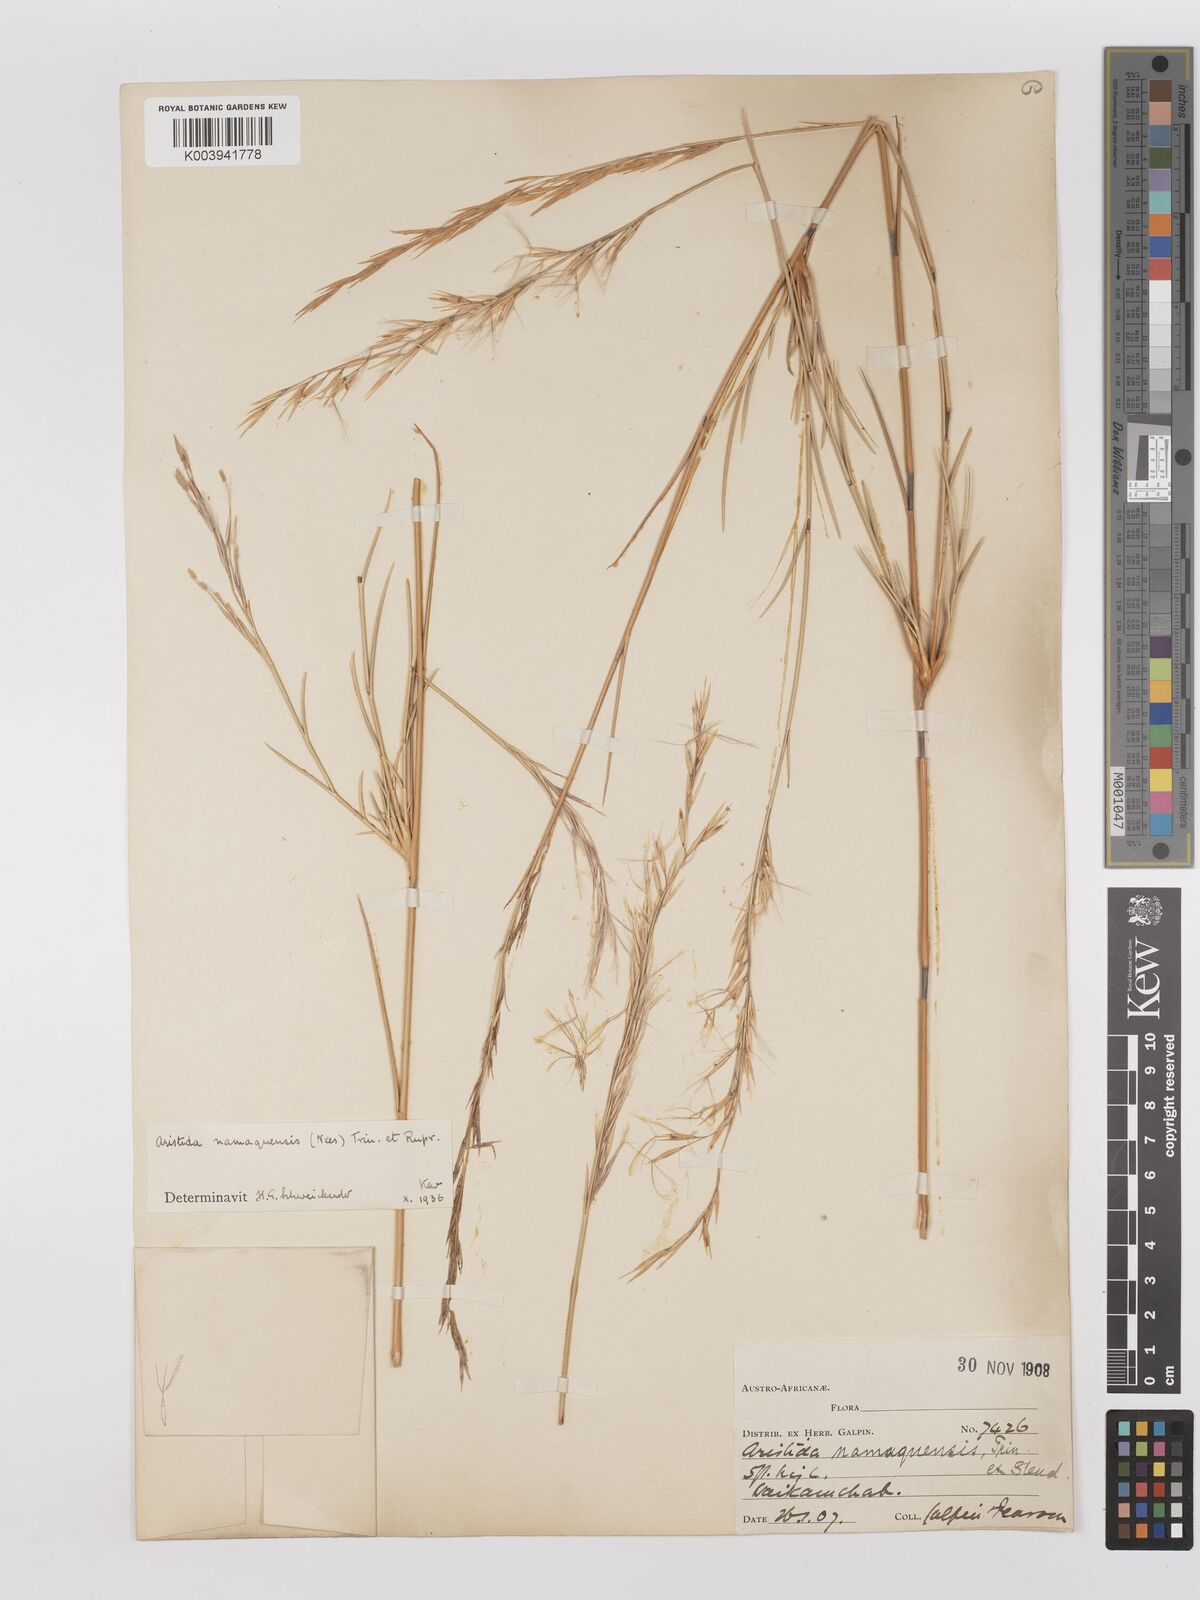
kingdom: Plantae
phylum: Tracheophyta
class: Liliopsida
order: Poales
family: Poaceae
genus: Stipagrostis
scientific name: Stipagrostis namaquensis
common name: River bushman grass
